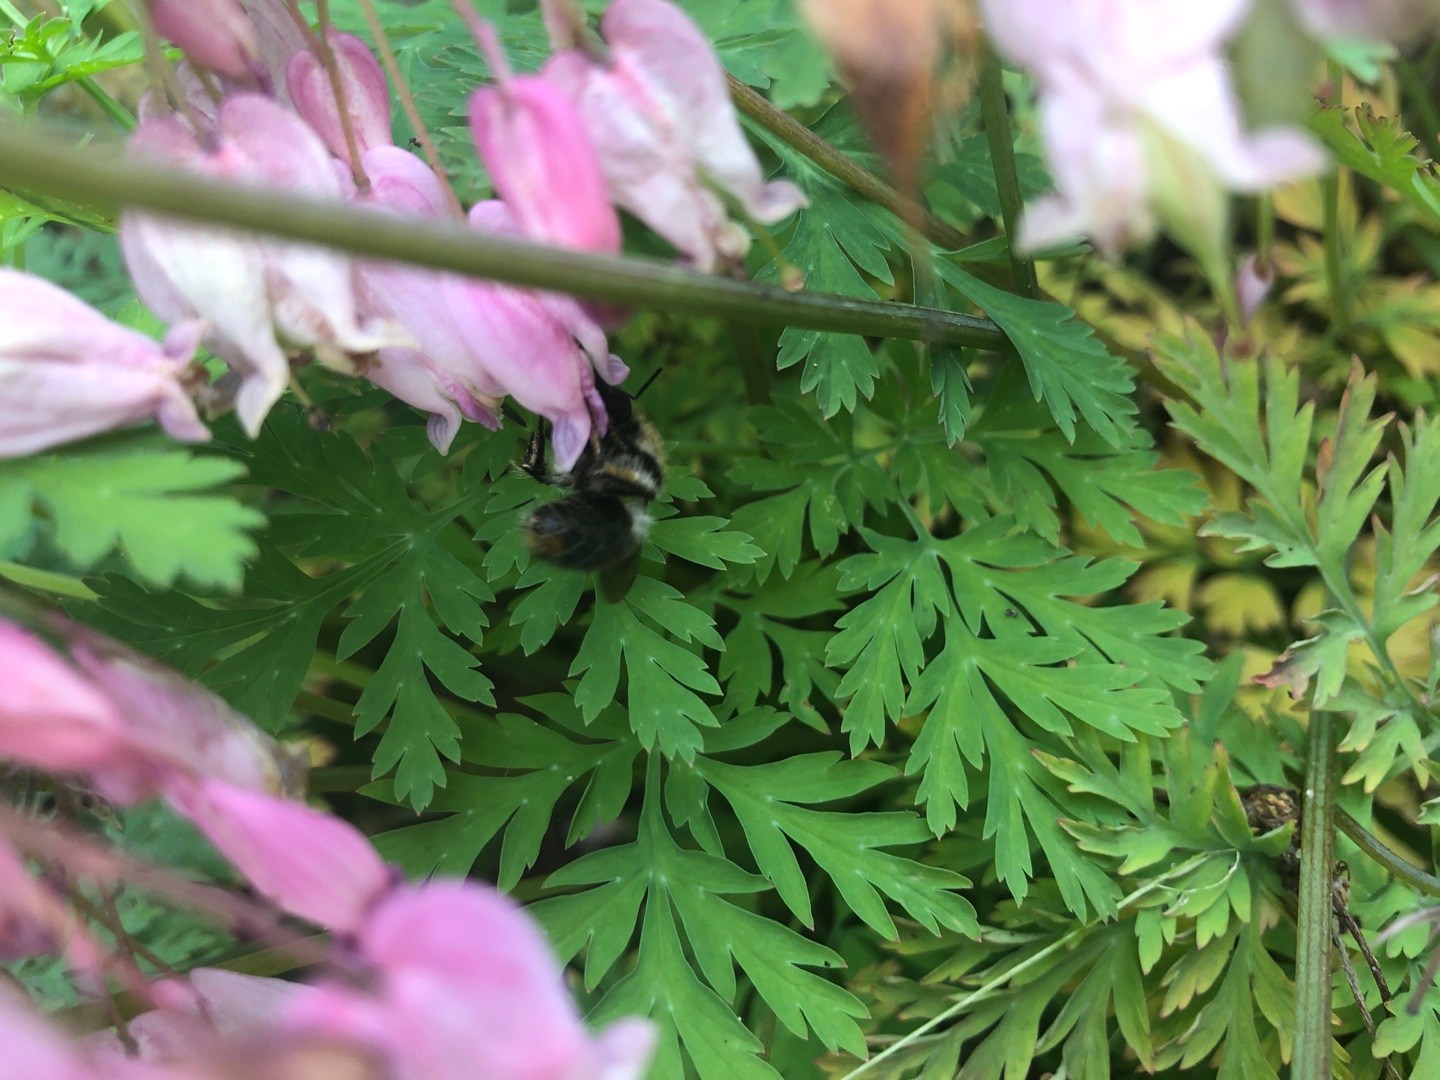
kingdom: Plantae
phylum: Tracheophyta
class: Magnoliopsida
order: Ranunculales
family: Papaveraceae
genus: Dicentra
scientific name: Dicentra formosa
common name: Småhjerte
